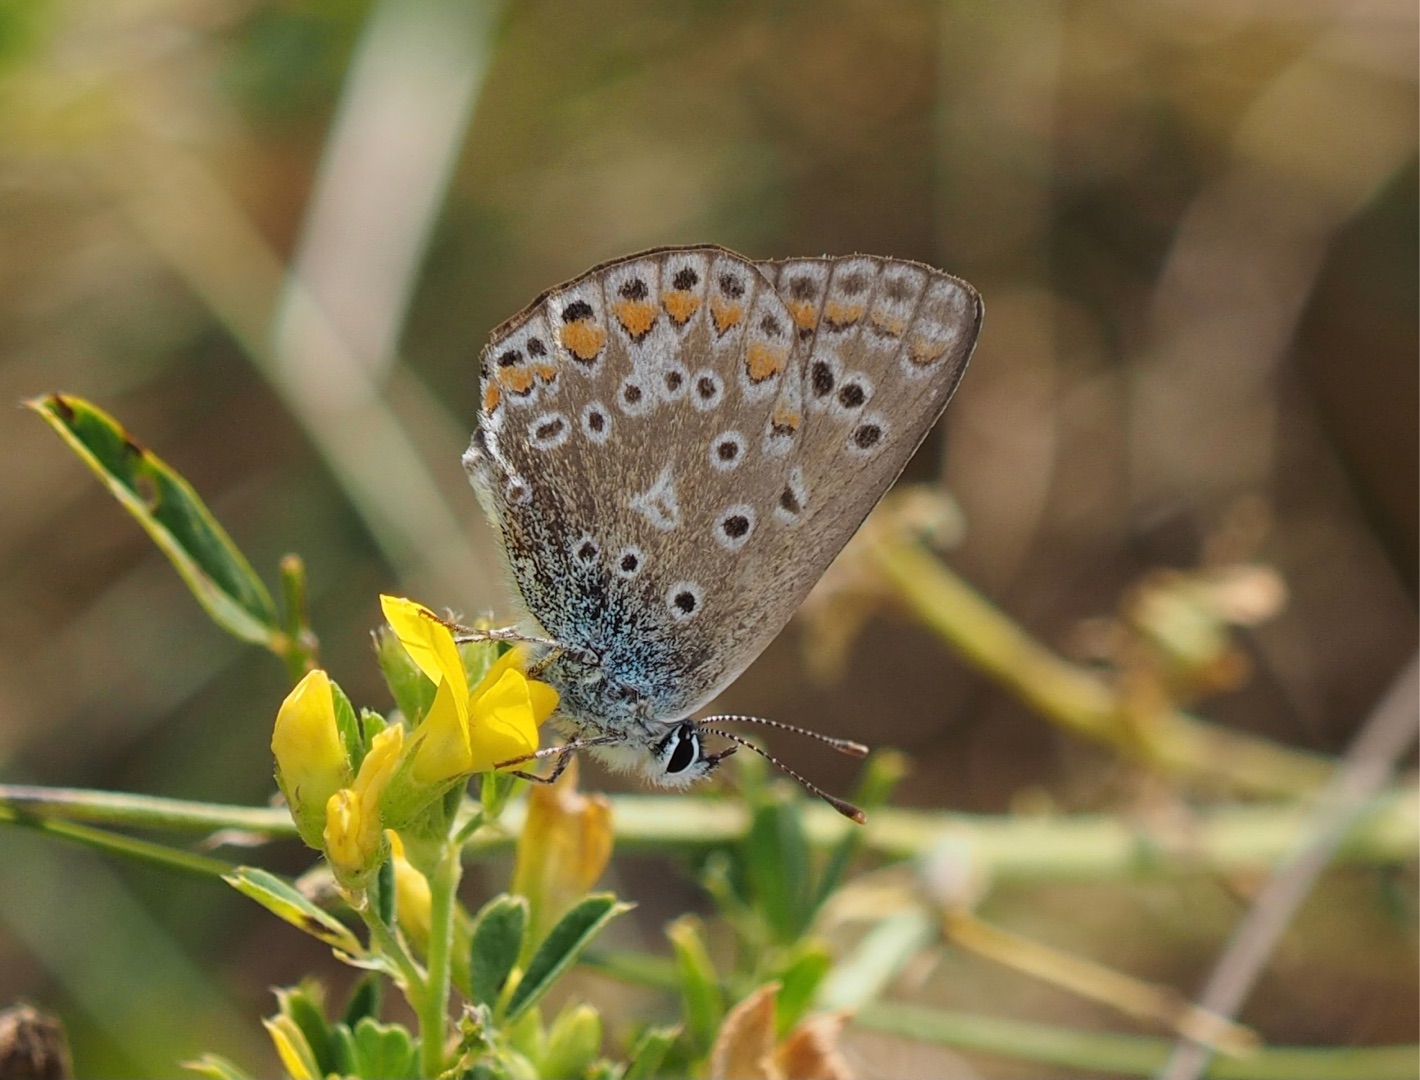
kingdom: Animalia
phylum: Arthropoda
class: Insecta
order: Lepidoptera
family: Lycaenidae
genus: Polyommatus
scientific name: Polyommatus icarus
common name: Almindelig blåfugl
